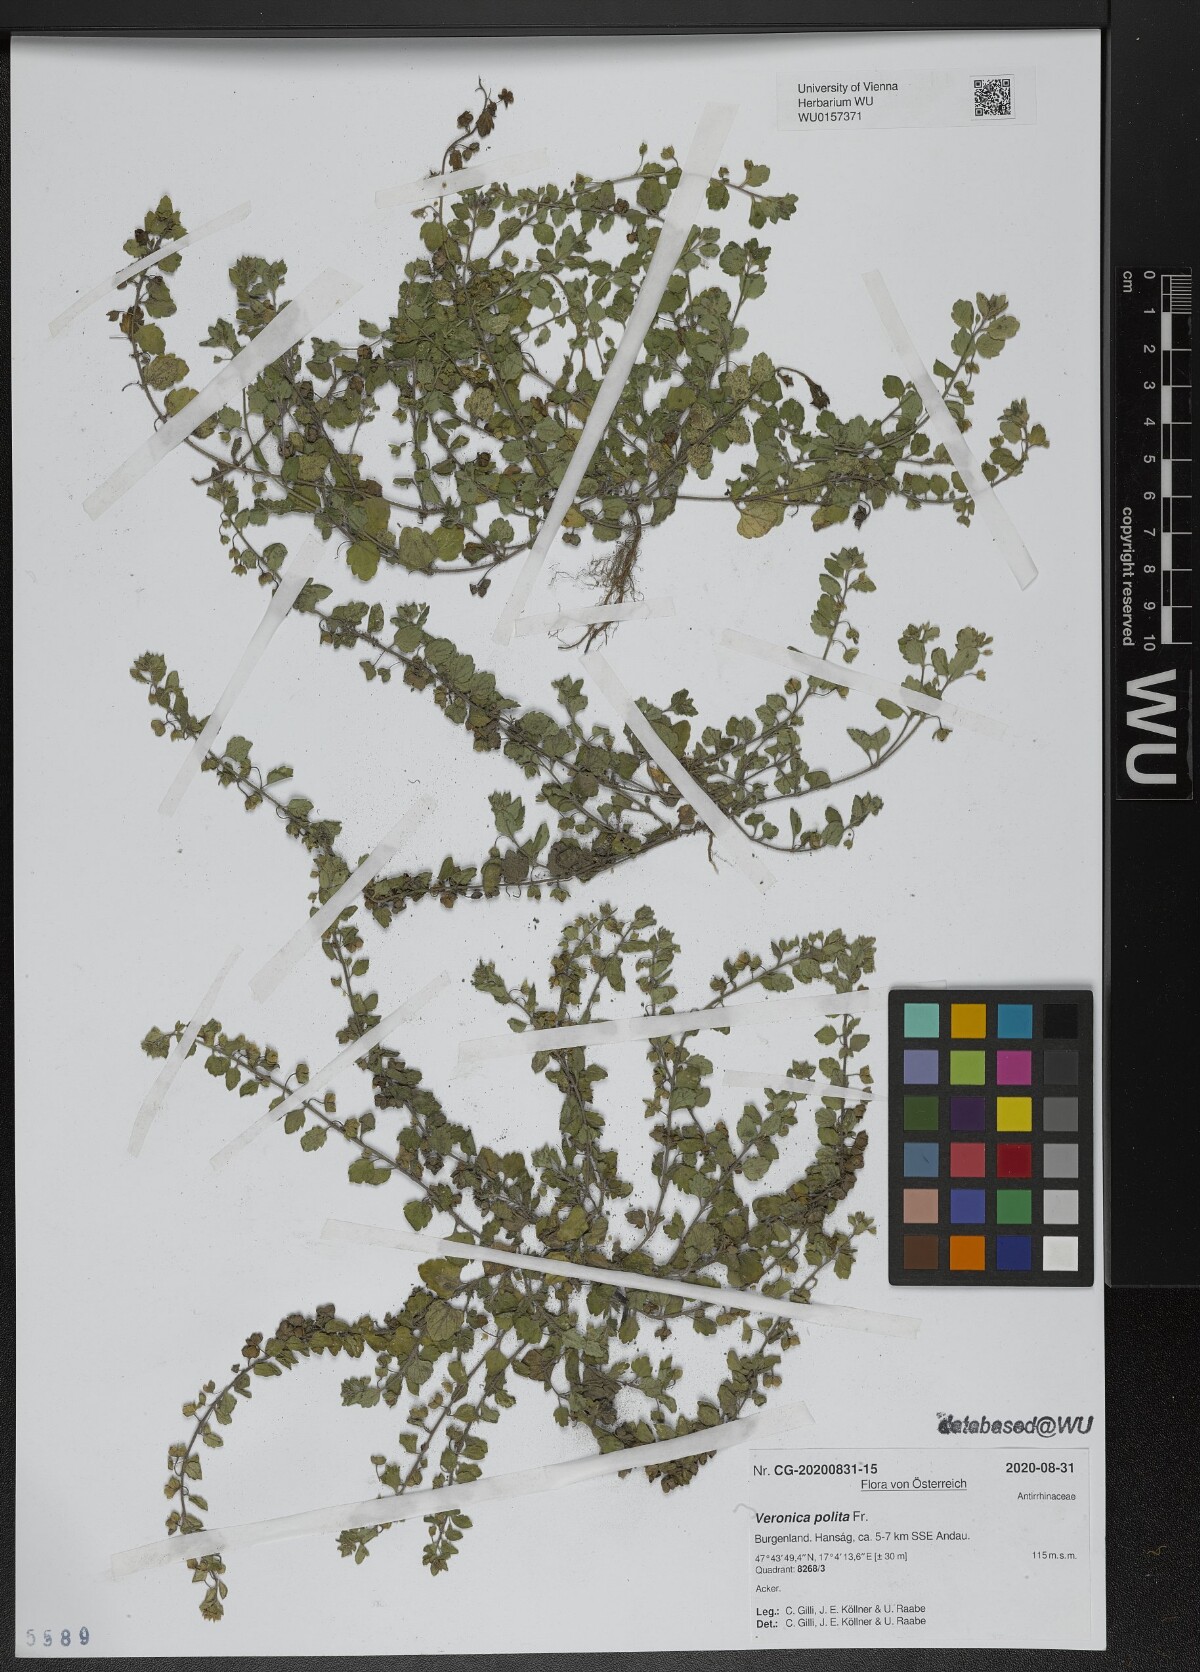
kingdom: Plantae
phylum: Tracheophyta
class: Magnoliopsida
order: Lamiales
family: Plantaginaceae
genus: Veronica
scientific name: Veronica polita
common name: Grey field-speedwell
